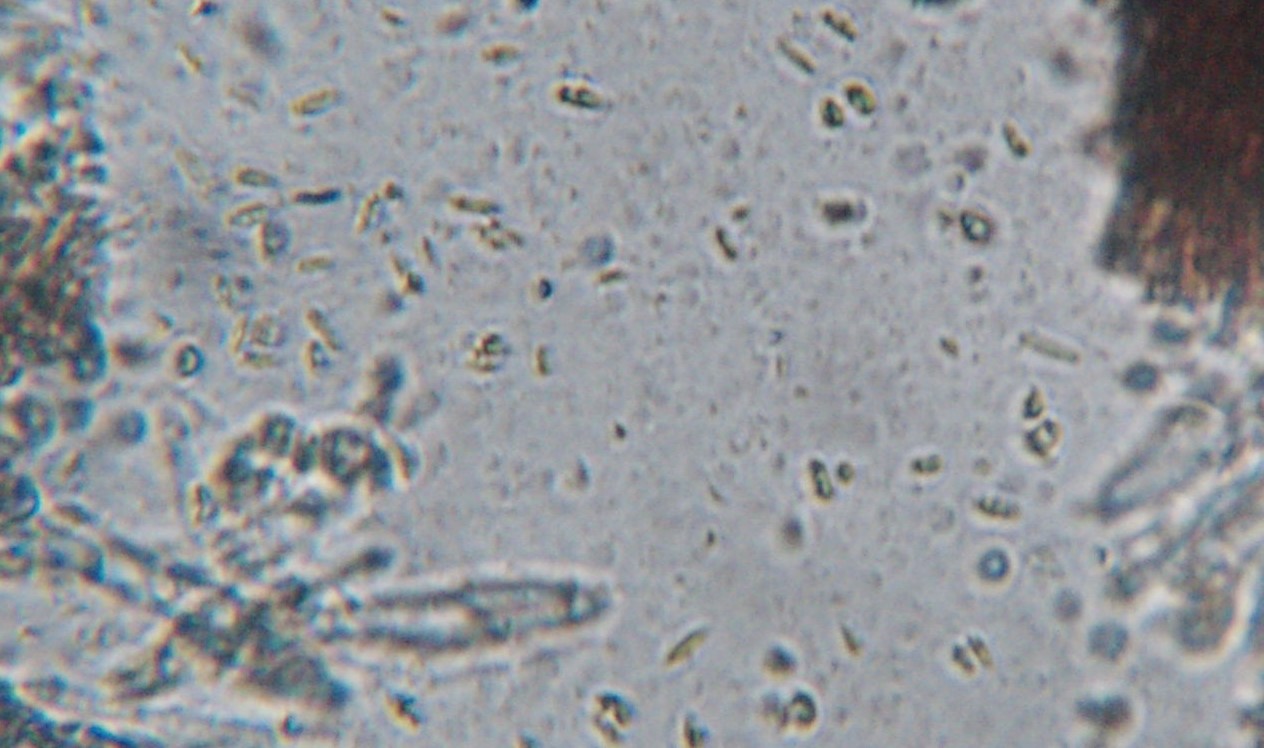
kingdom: Fungi
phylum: Ascomycota
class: Leotiomycetes
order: Helotiales
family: Helotiaceae
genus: Durella
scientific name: Durella
